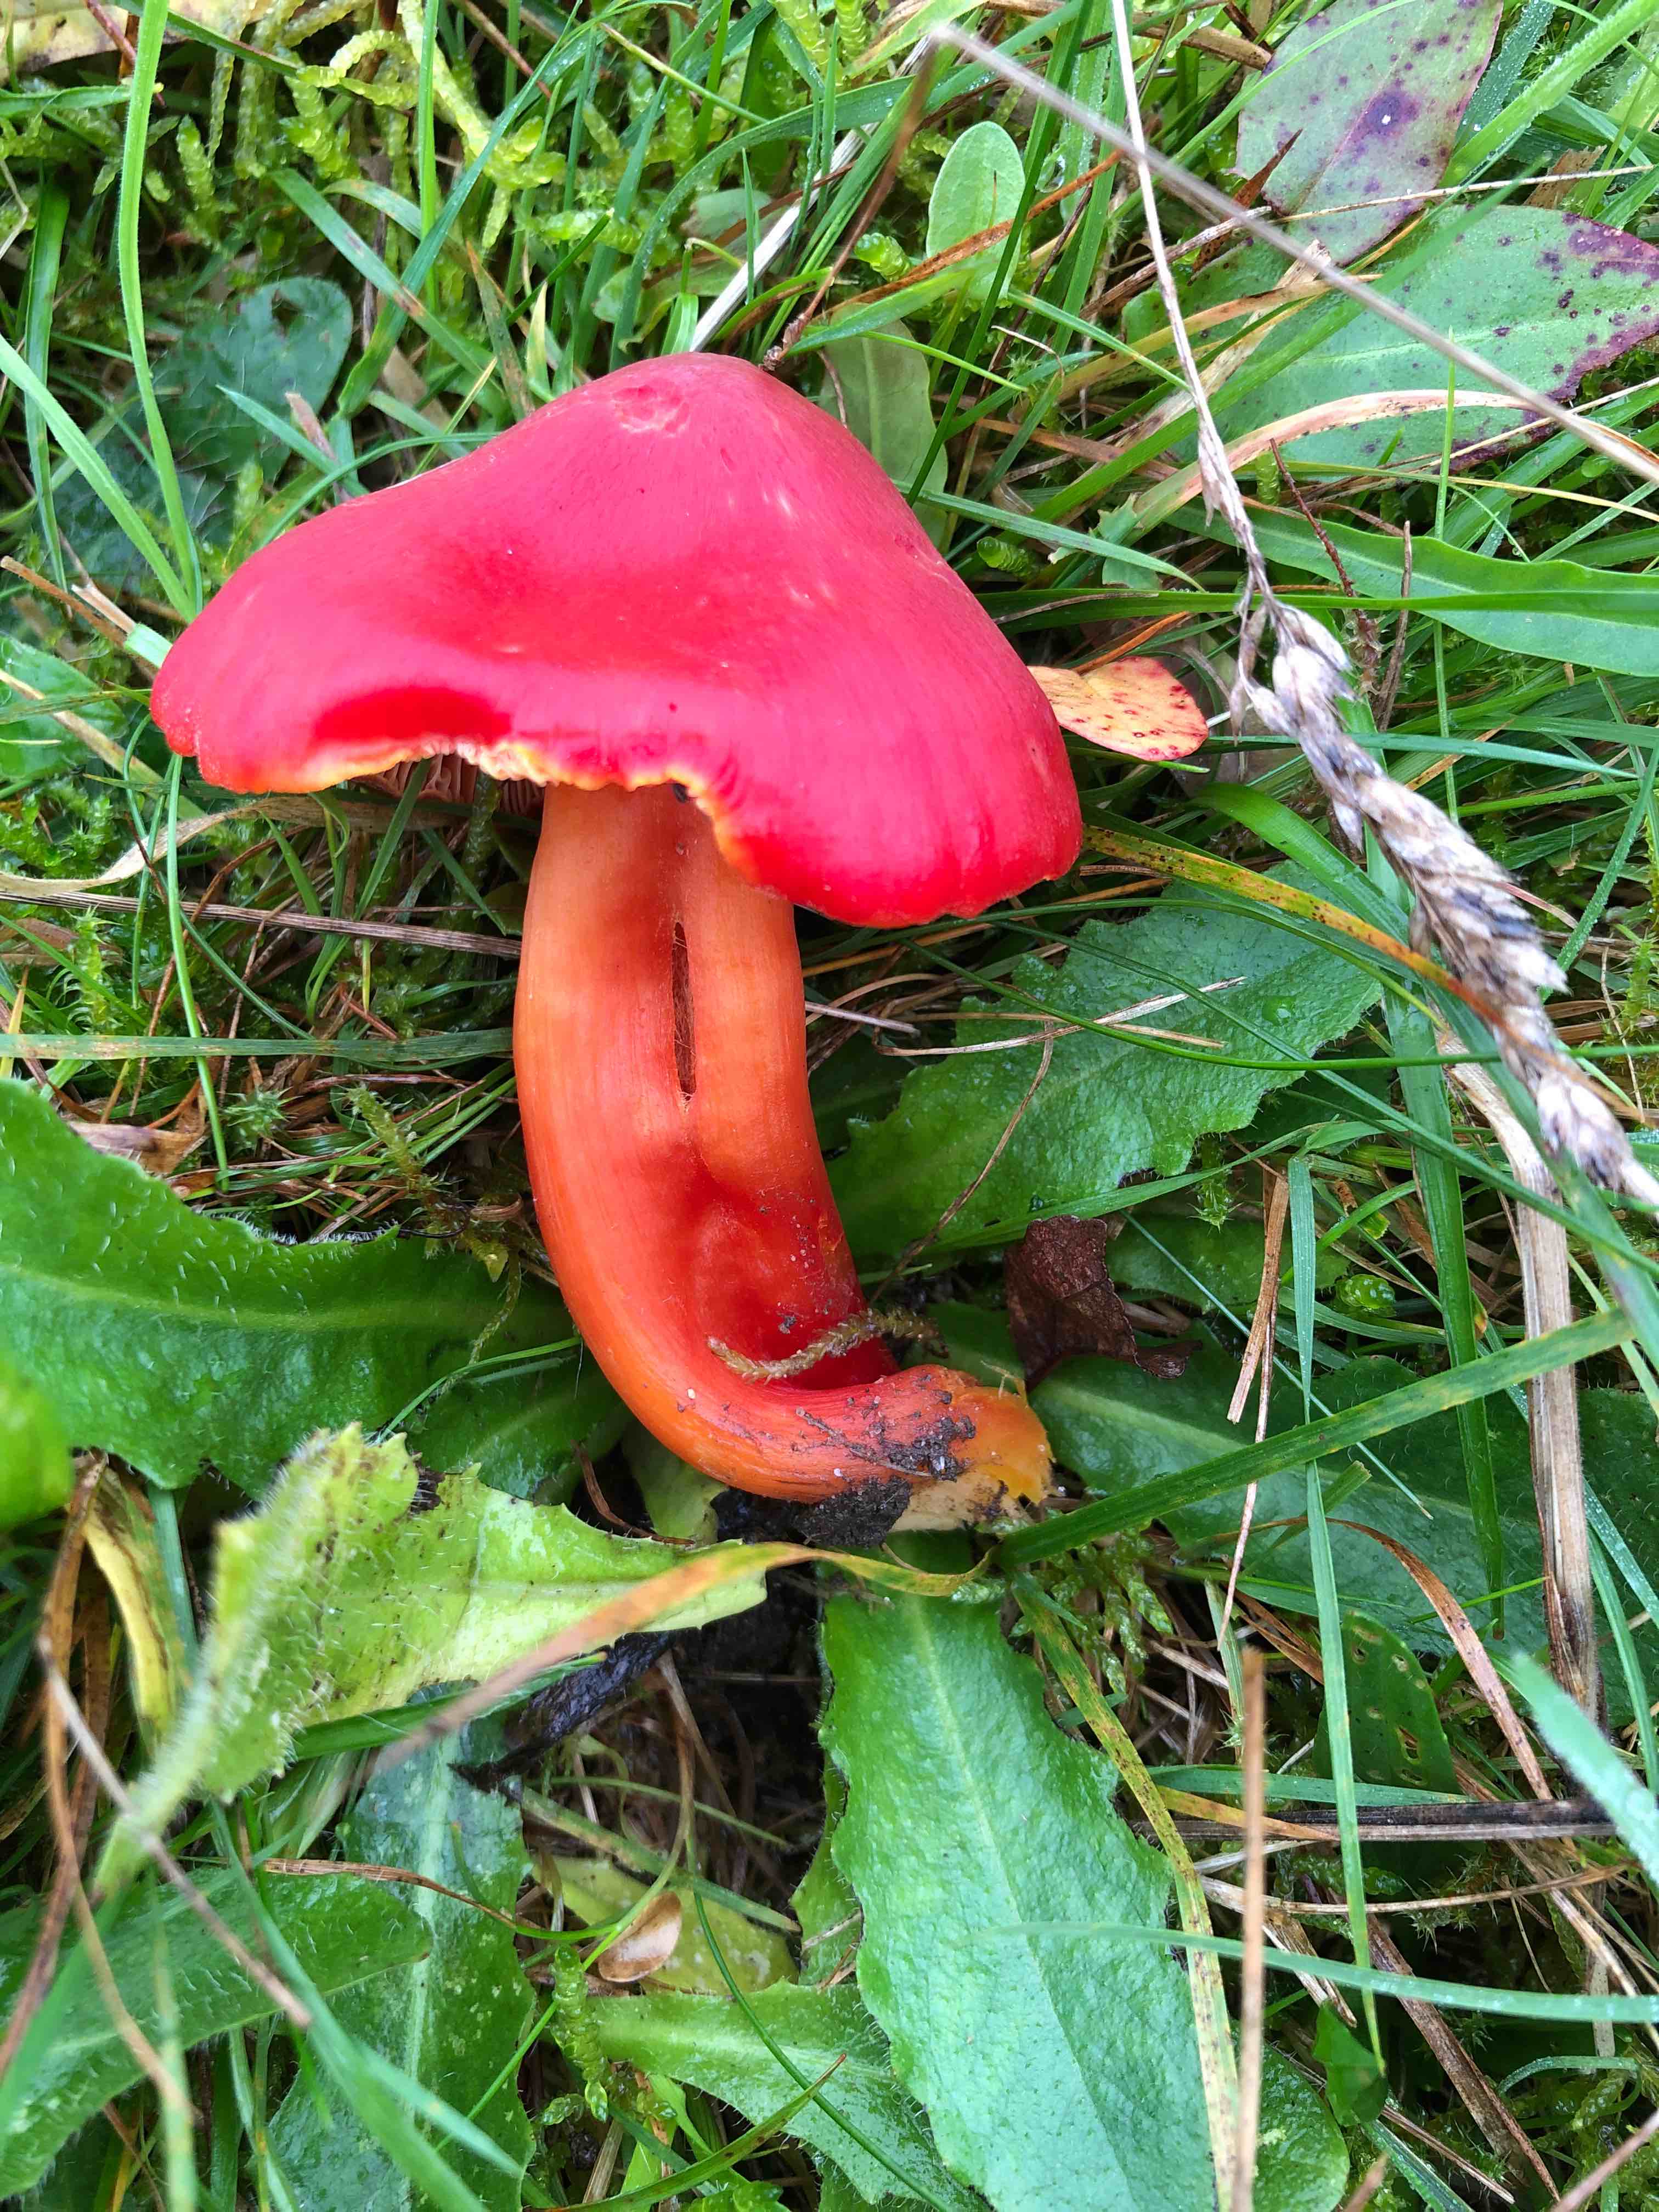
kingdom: Fungi
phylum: Basidiomycota
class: Agaricomycetes
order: Agaricales
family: Hygrophoraceae
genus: Hygrocybe
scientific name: Hygrocybe splendidissima
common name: knaldrød vokshat
